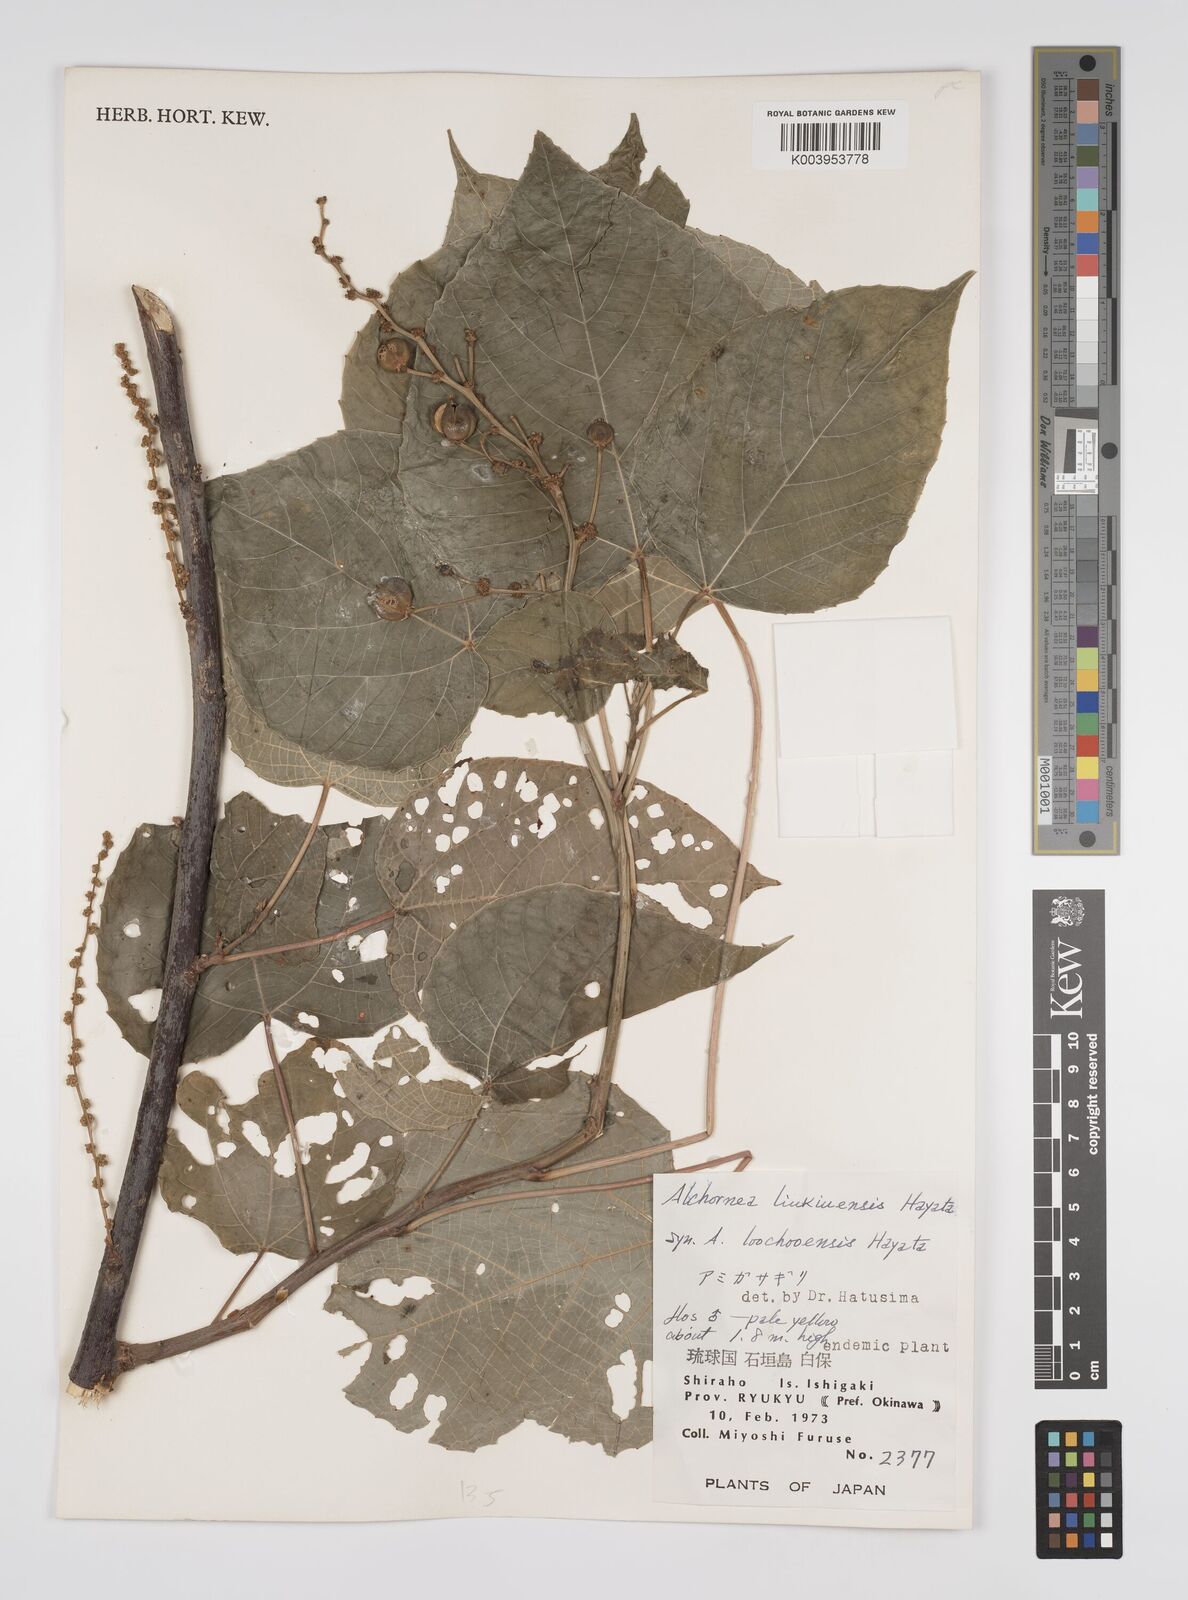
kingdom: Plantae
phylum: Tracheophyta
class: Magnoliopsida
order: Malpighiales
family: Euphorbiaceae
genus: Alchornea
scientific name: Alchornea liukiuensis
